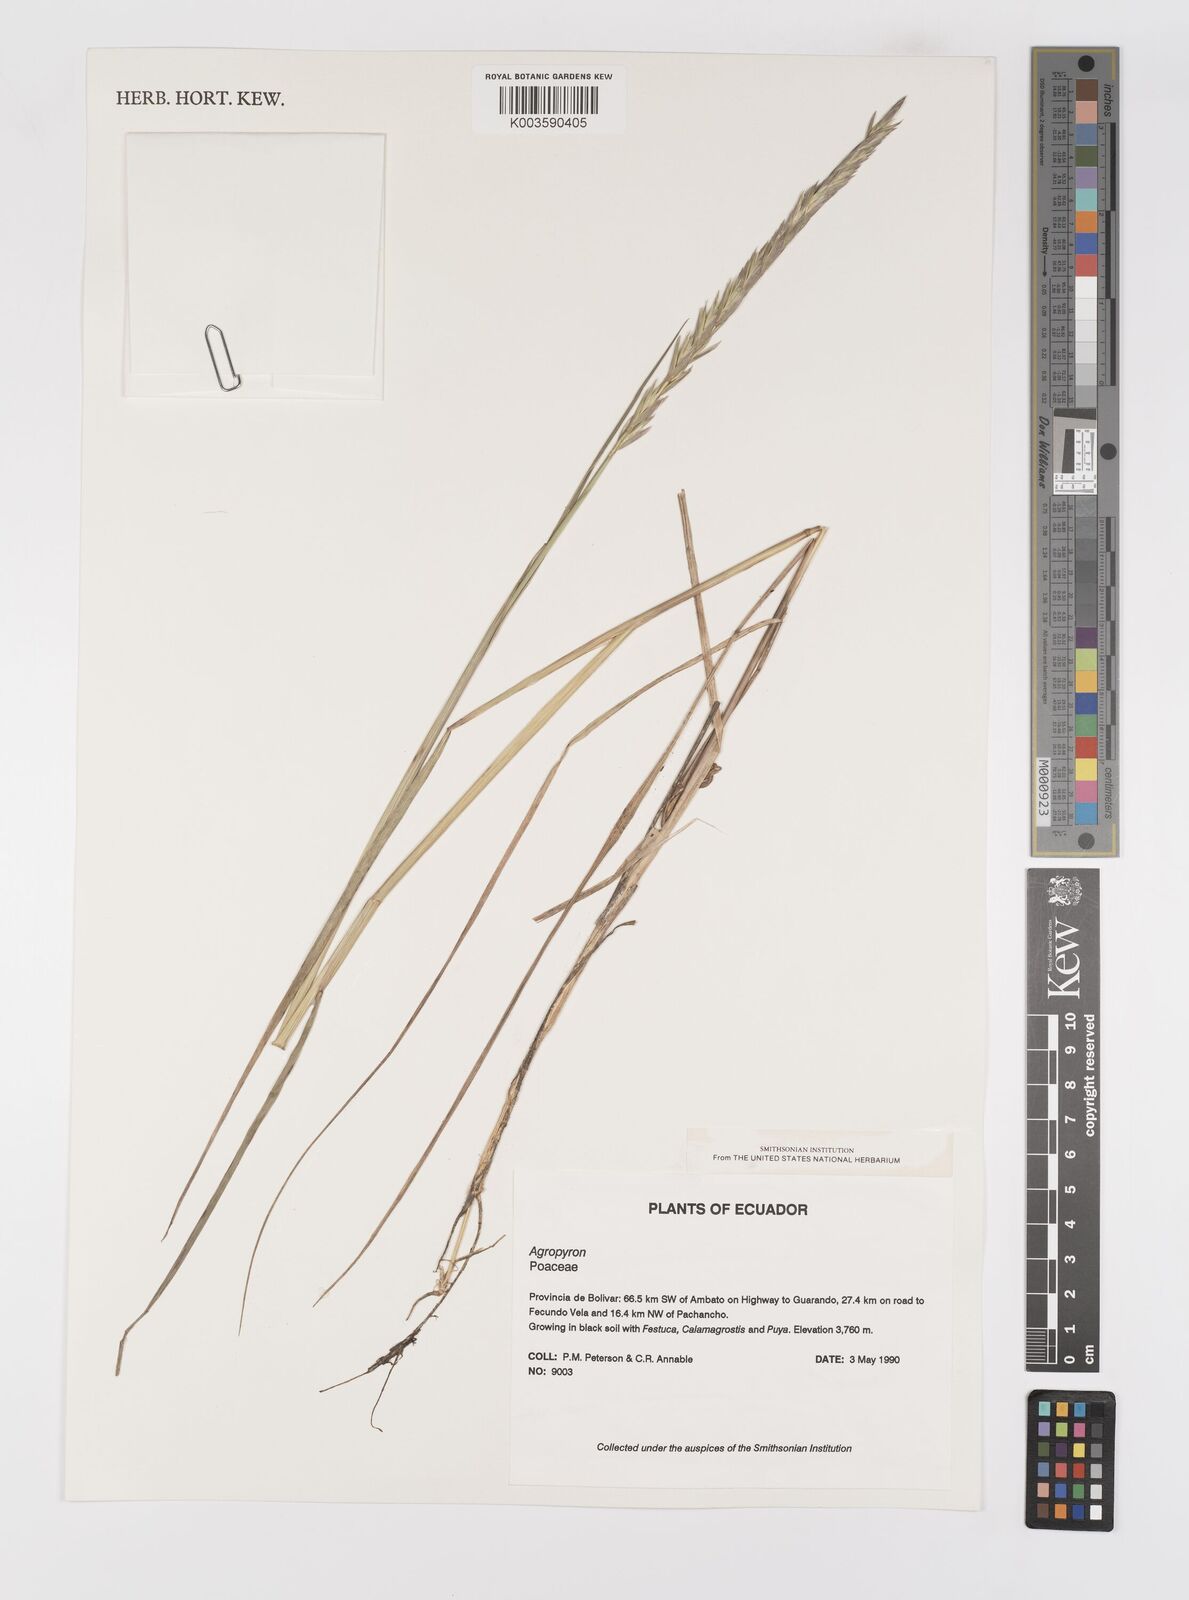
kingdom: Plantae
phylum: Tracheophyta
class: Liliopsida
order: Poales
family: Poaceae
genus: Elymus
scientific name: Elymus cordilleranus
